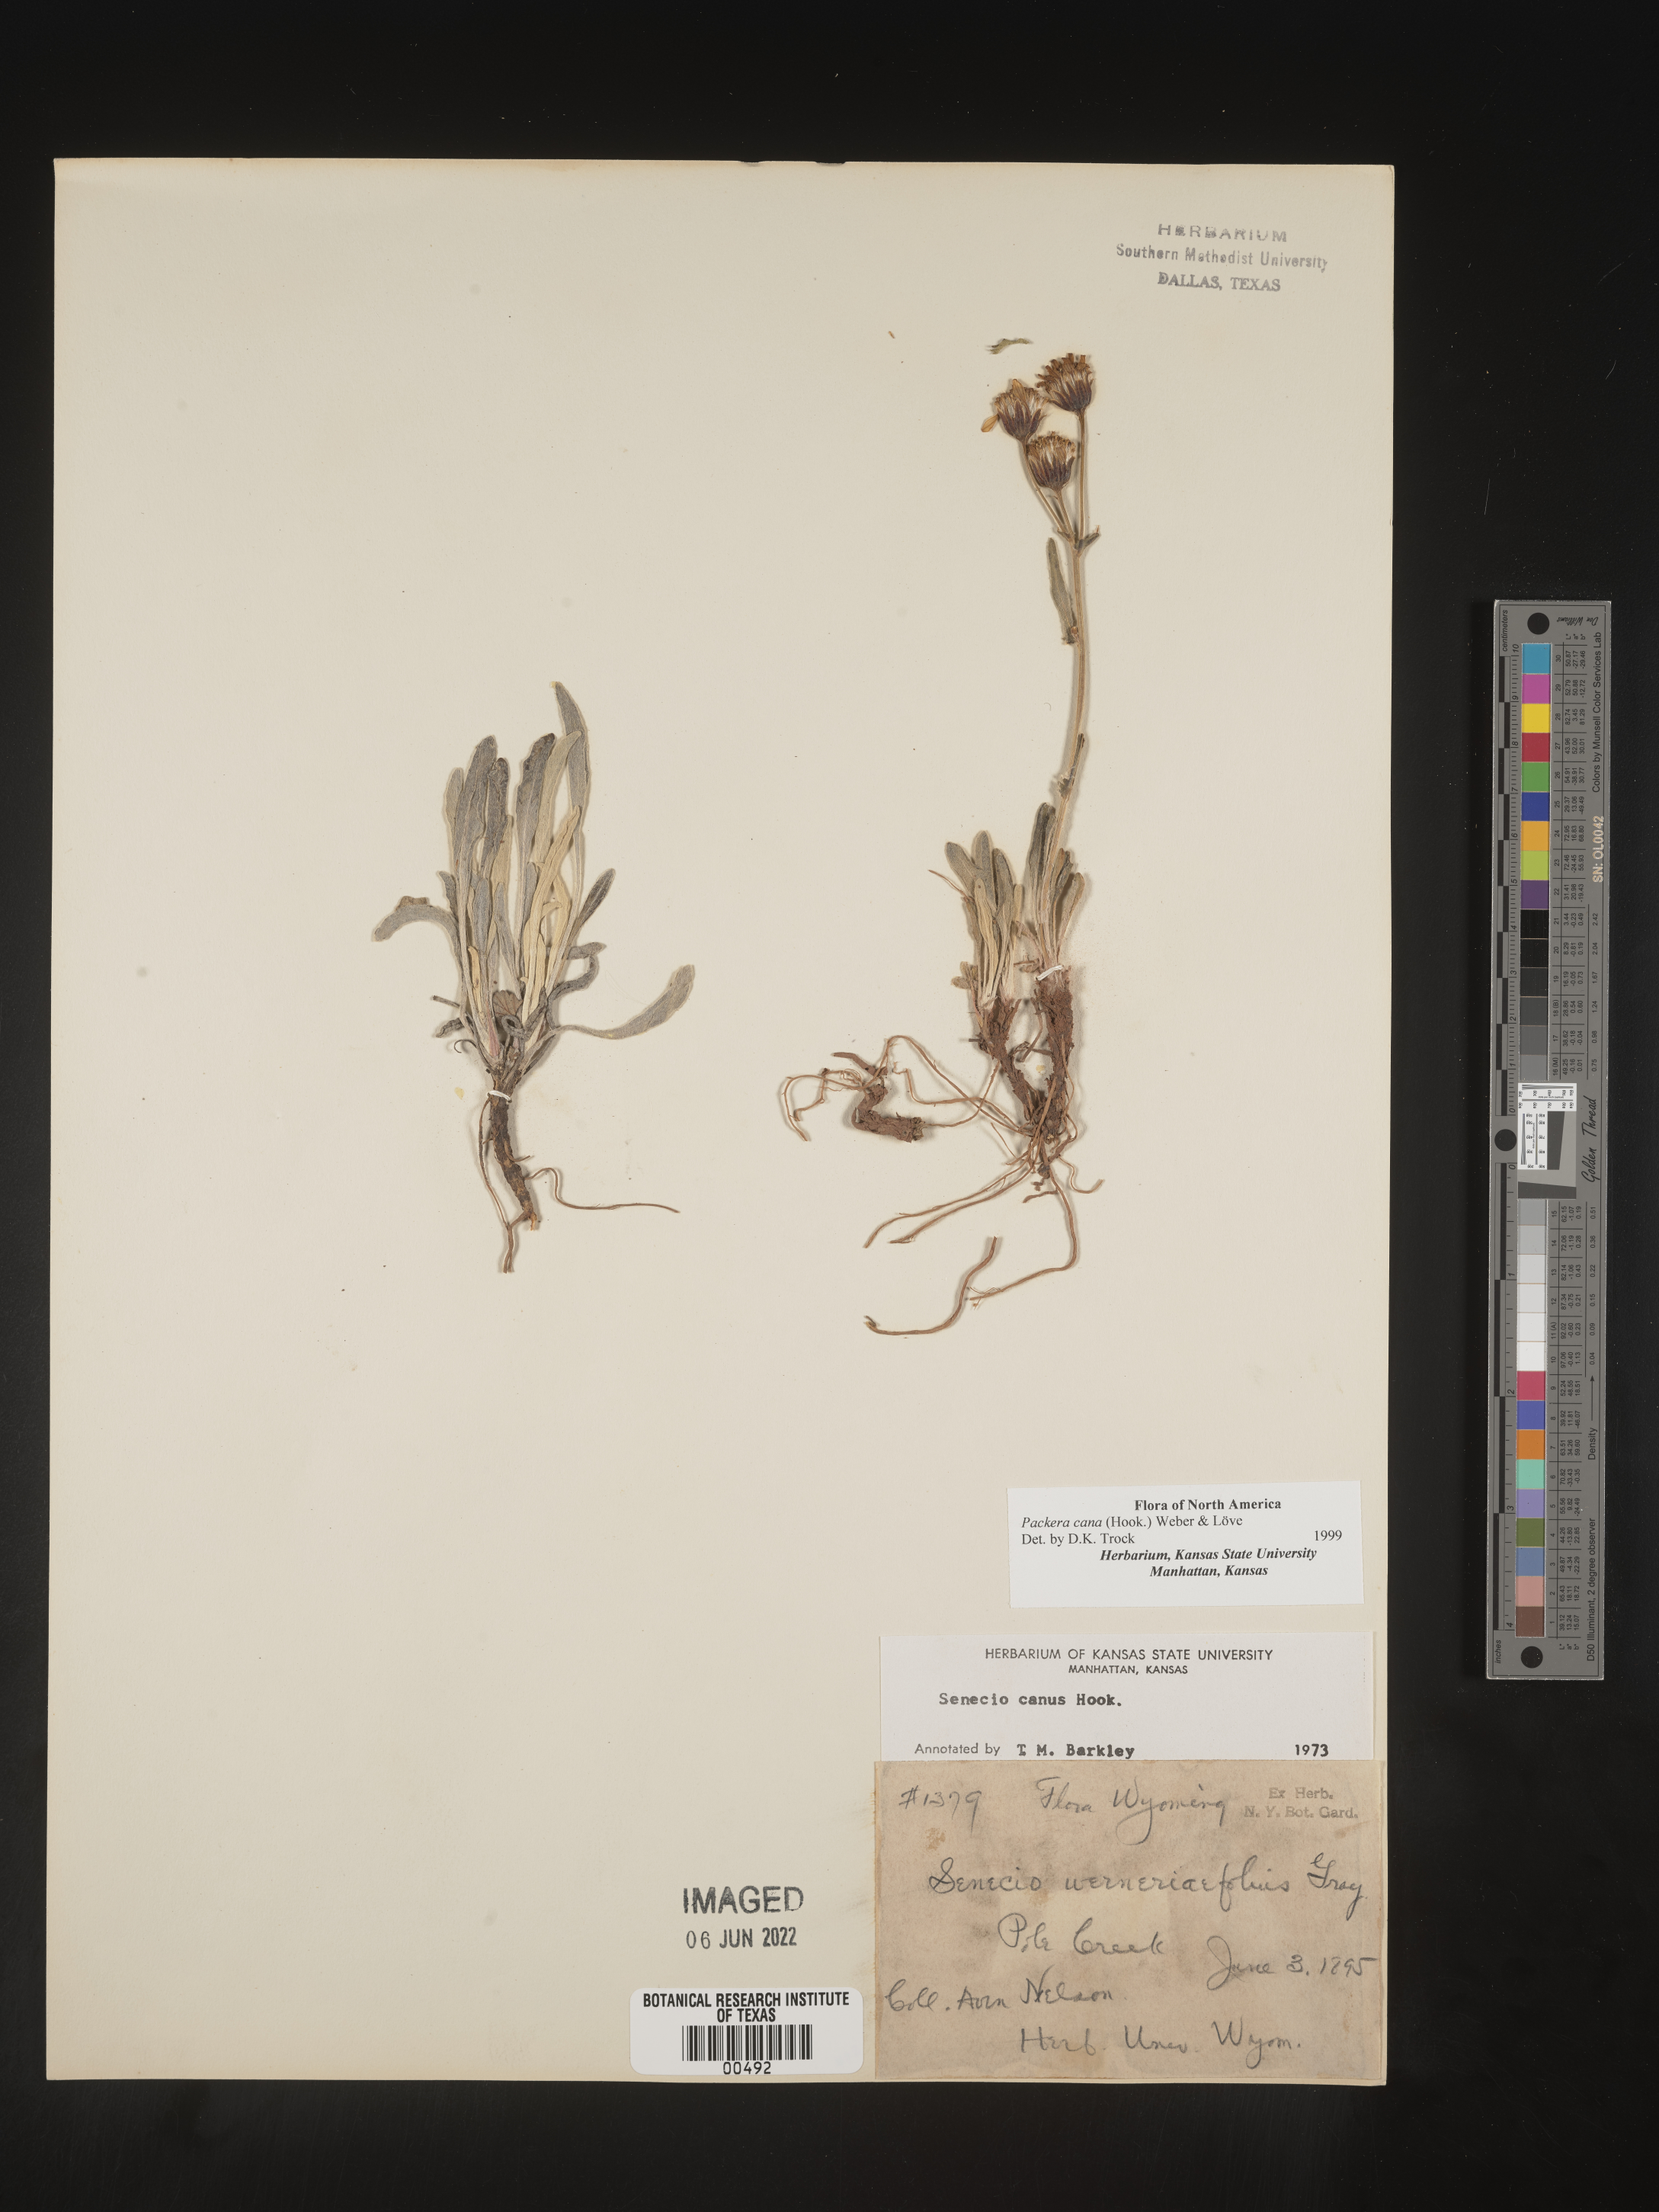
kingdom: Plantae
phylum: Tracheophyta
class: Magnoliopsida
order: Asterales
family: Asteraceae
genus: Packera
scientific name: Packera cana
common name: Woolly groundsel
